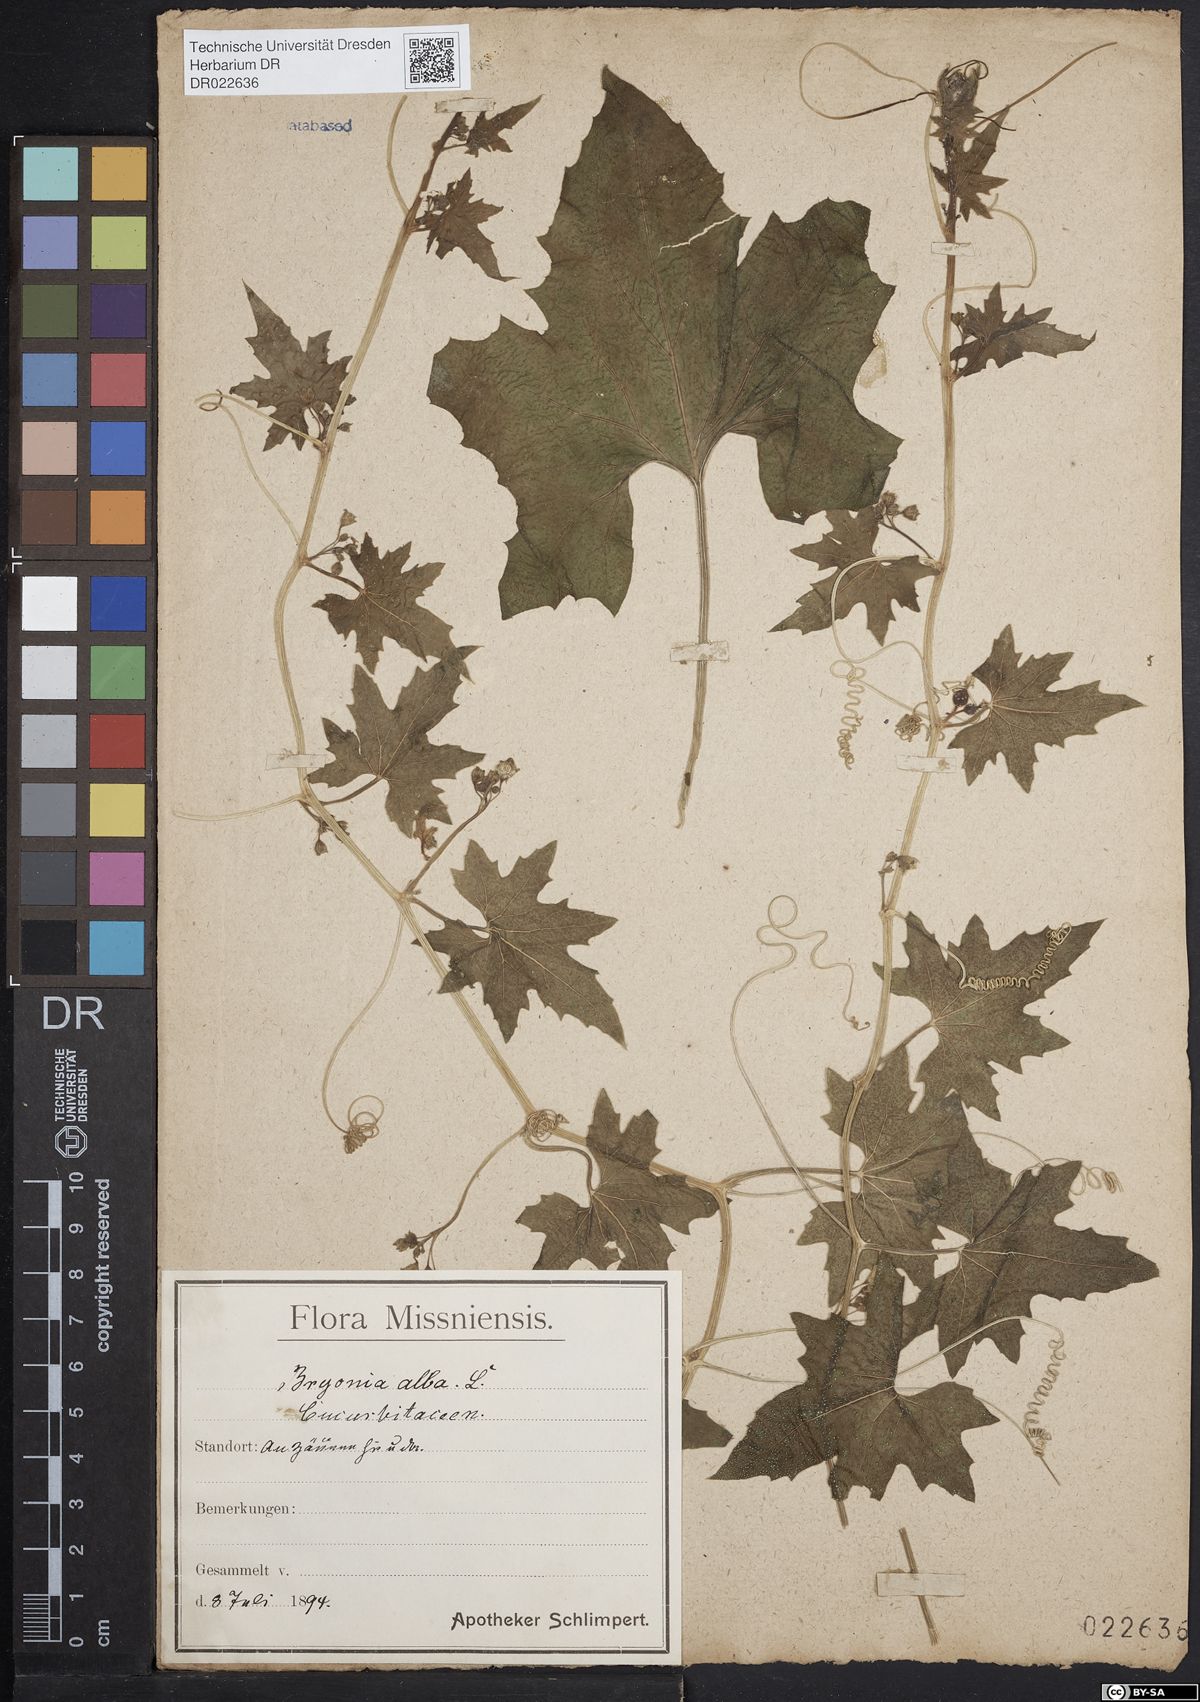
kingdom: Plantae
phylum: Tracheophyta
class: Magnoliopsida
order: Cucurbitales
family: Cucurbitaceae
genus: Bryonia
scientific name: Bryonia alba
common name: White bryony
